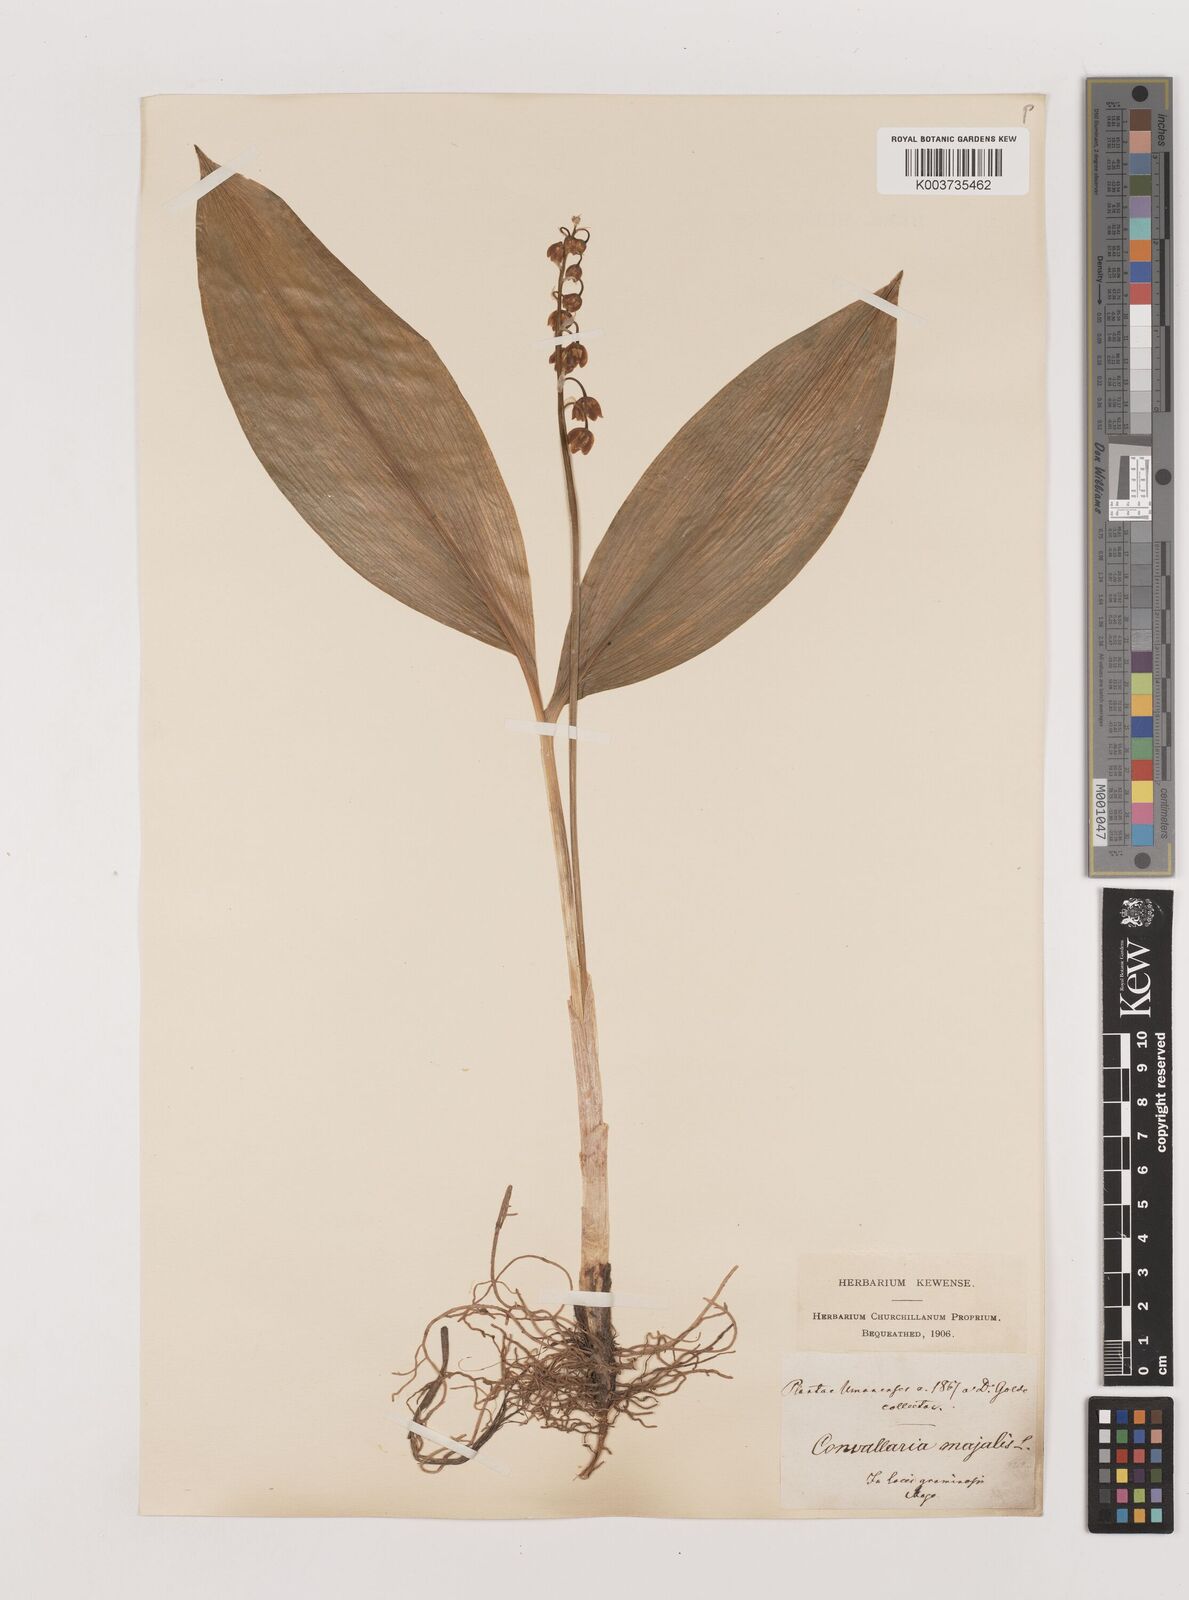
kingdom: Plantae
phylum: Tracheophyta
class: Liliopsida
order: Asparagales
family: Asparagaceae
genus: Convallaria
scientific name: Convallaria majalis
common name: Lily-of-the-valley
